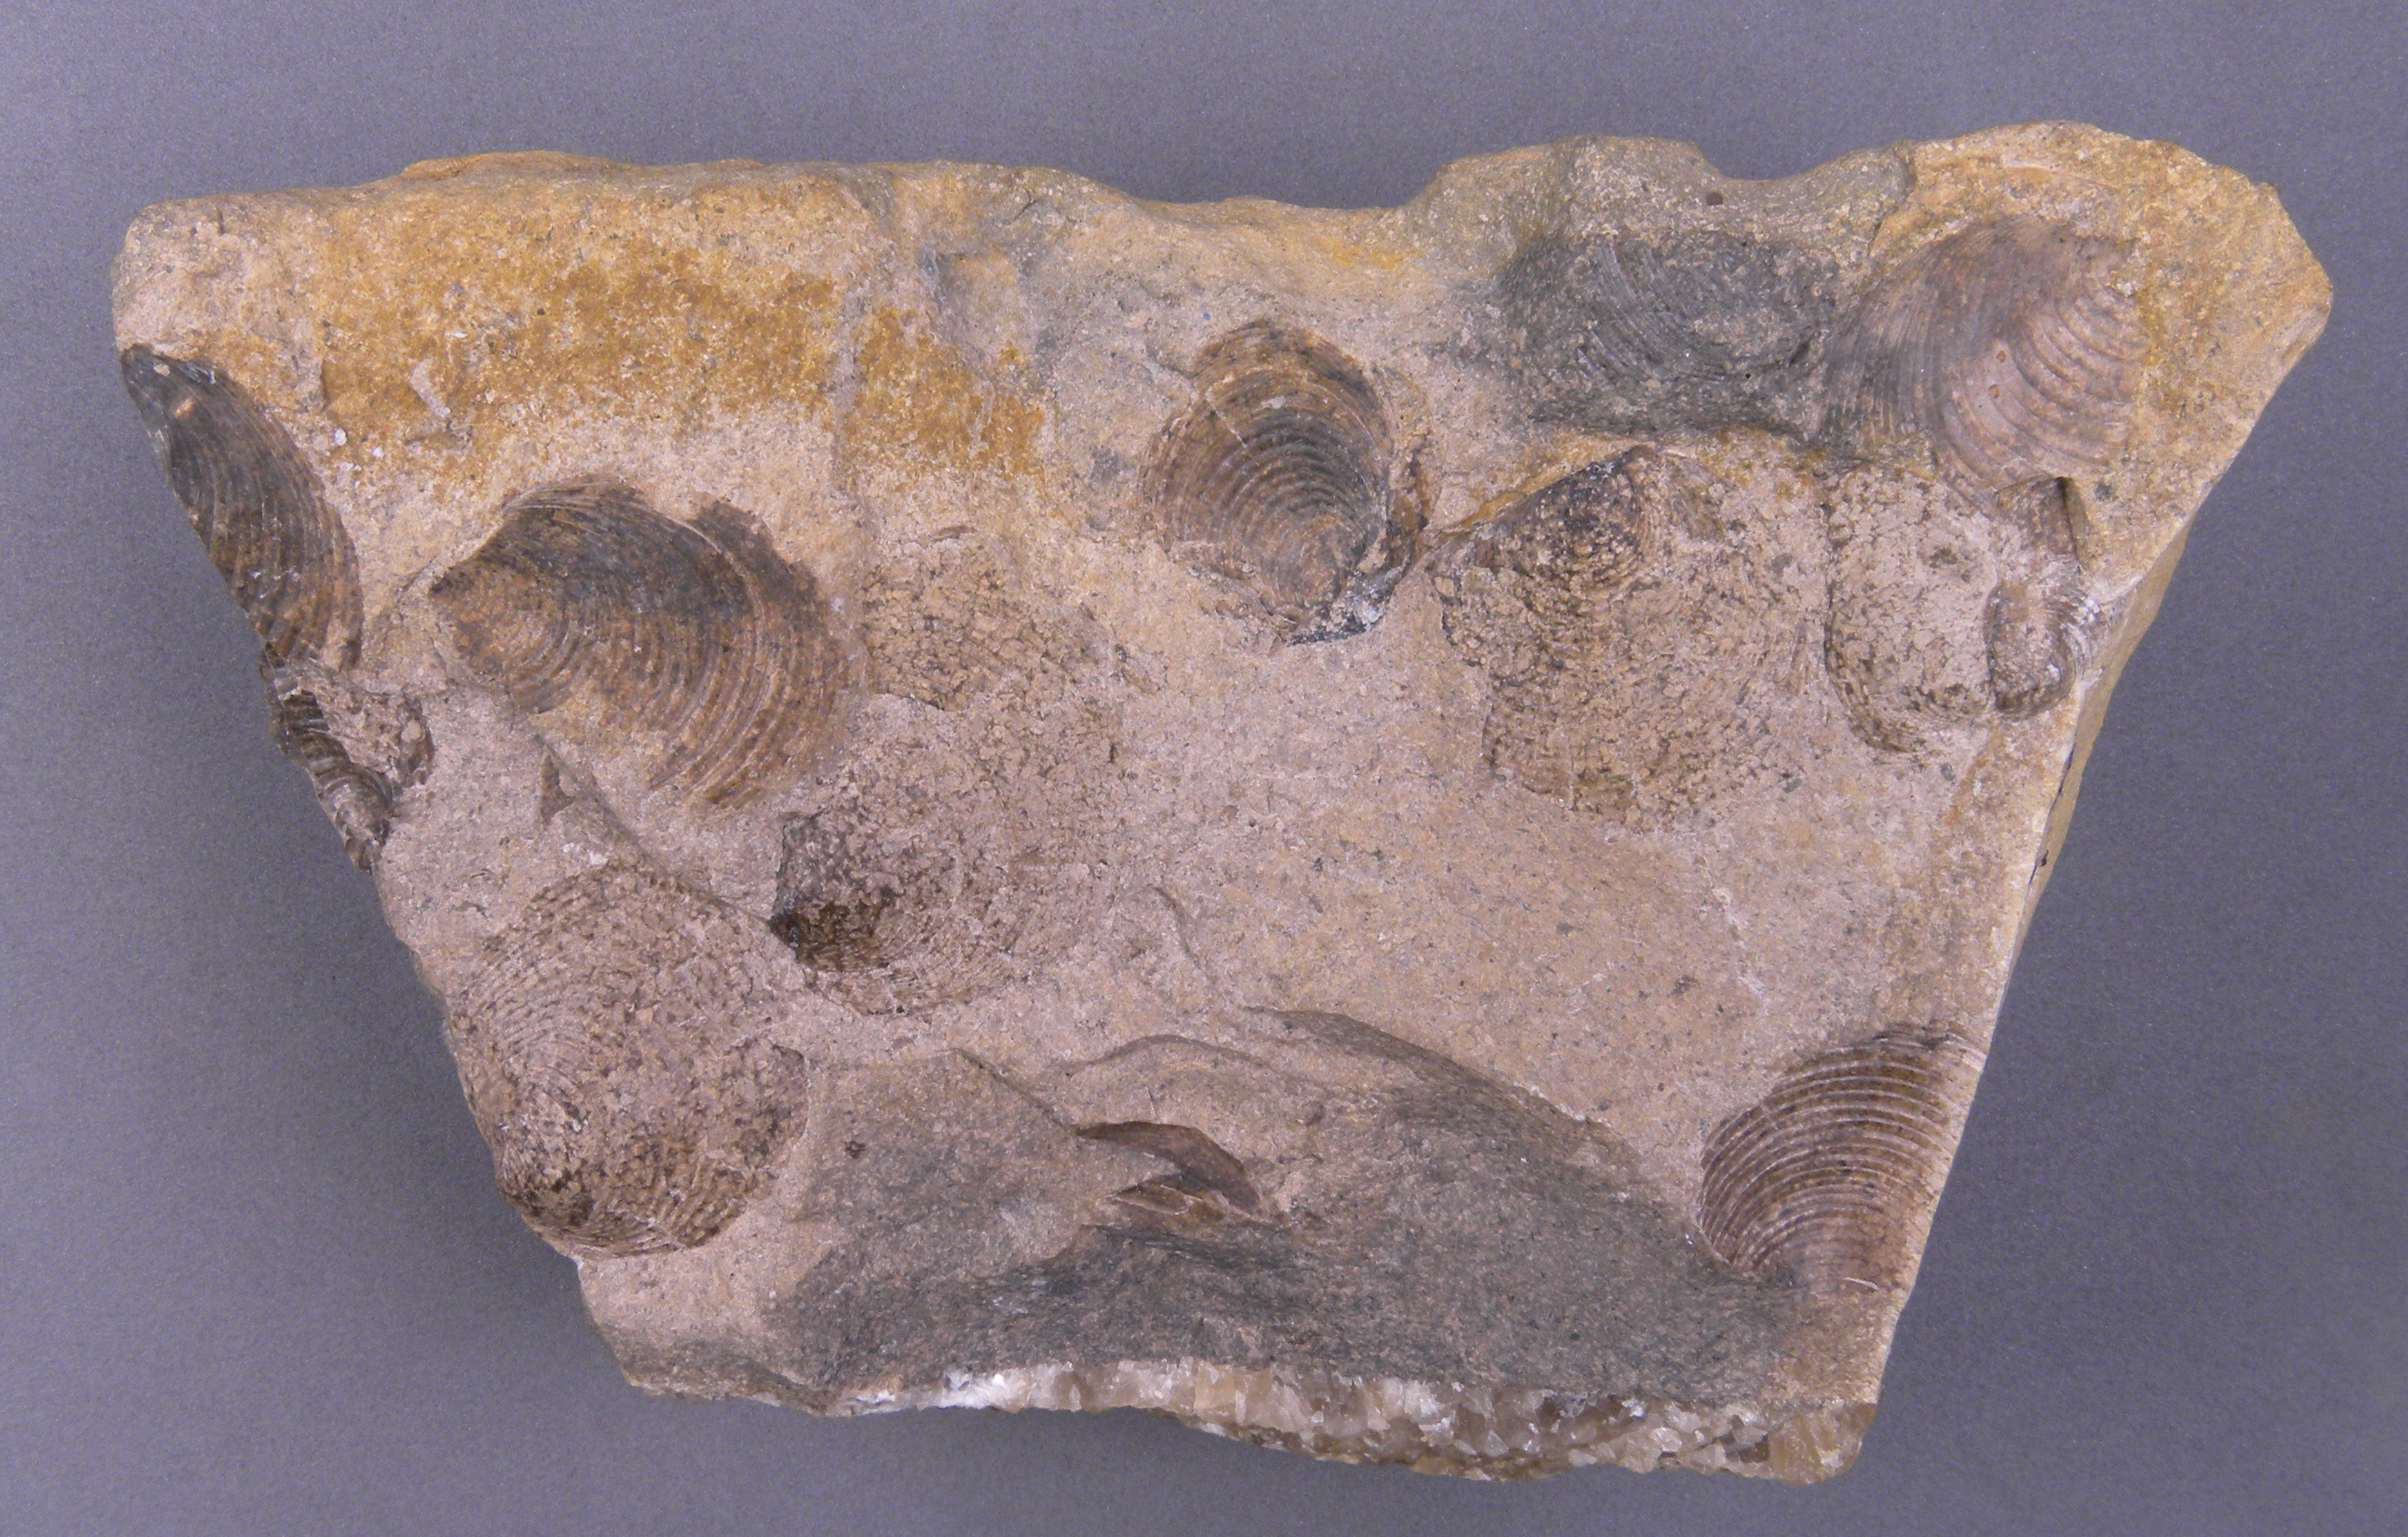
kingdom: Animalia
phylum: Mollusca
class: Bivalvia
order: Mytilida
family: Mytilidae
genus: Steinmannia
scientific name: Steinmannia Posidonomya bronni
